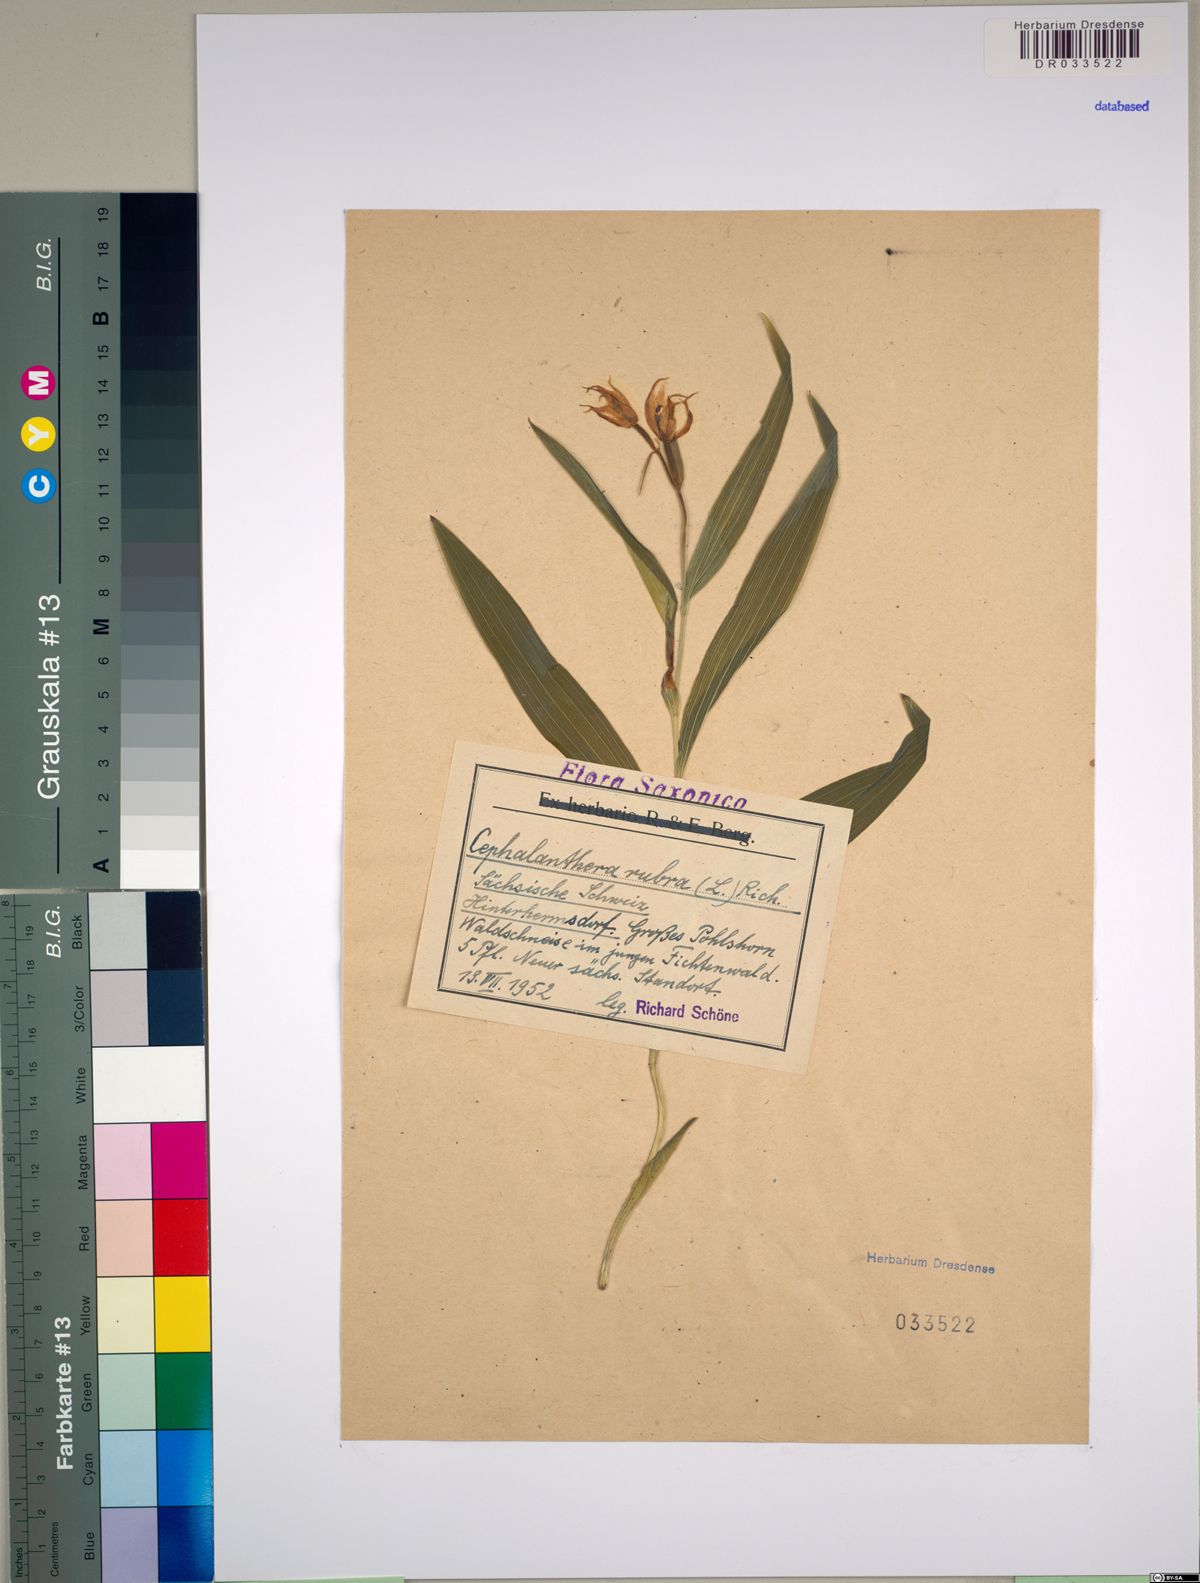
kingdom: Plantae
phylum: Tracheophyta
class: Liliopsida
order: Asparagales
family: Orchidaceae
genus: Cephalanthera
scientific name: Cephalanthera rubra
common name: Red helleborine
